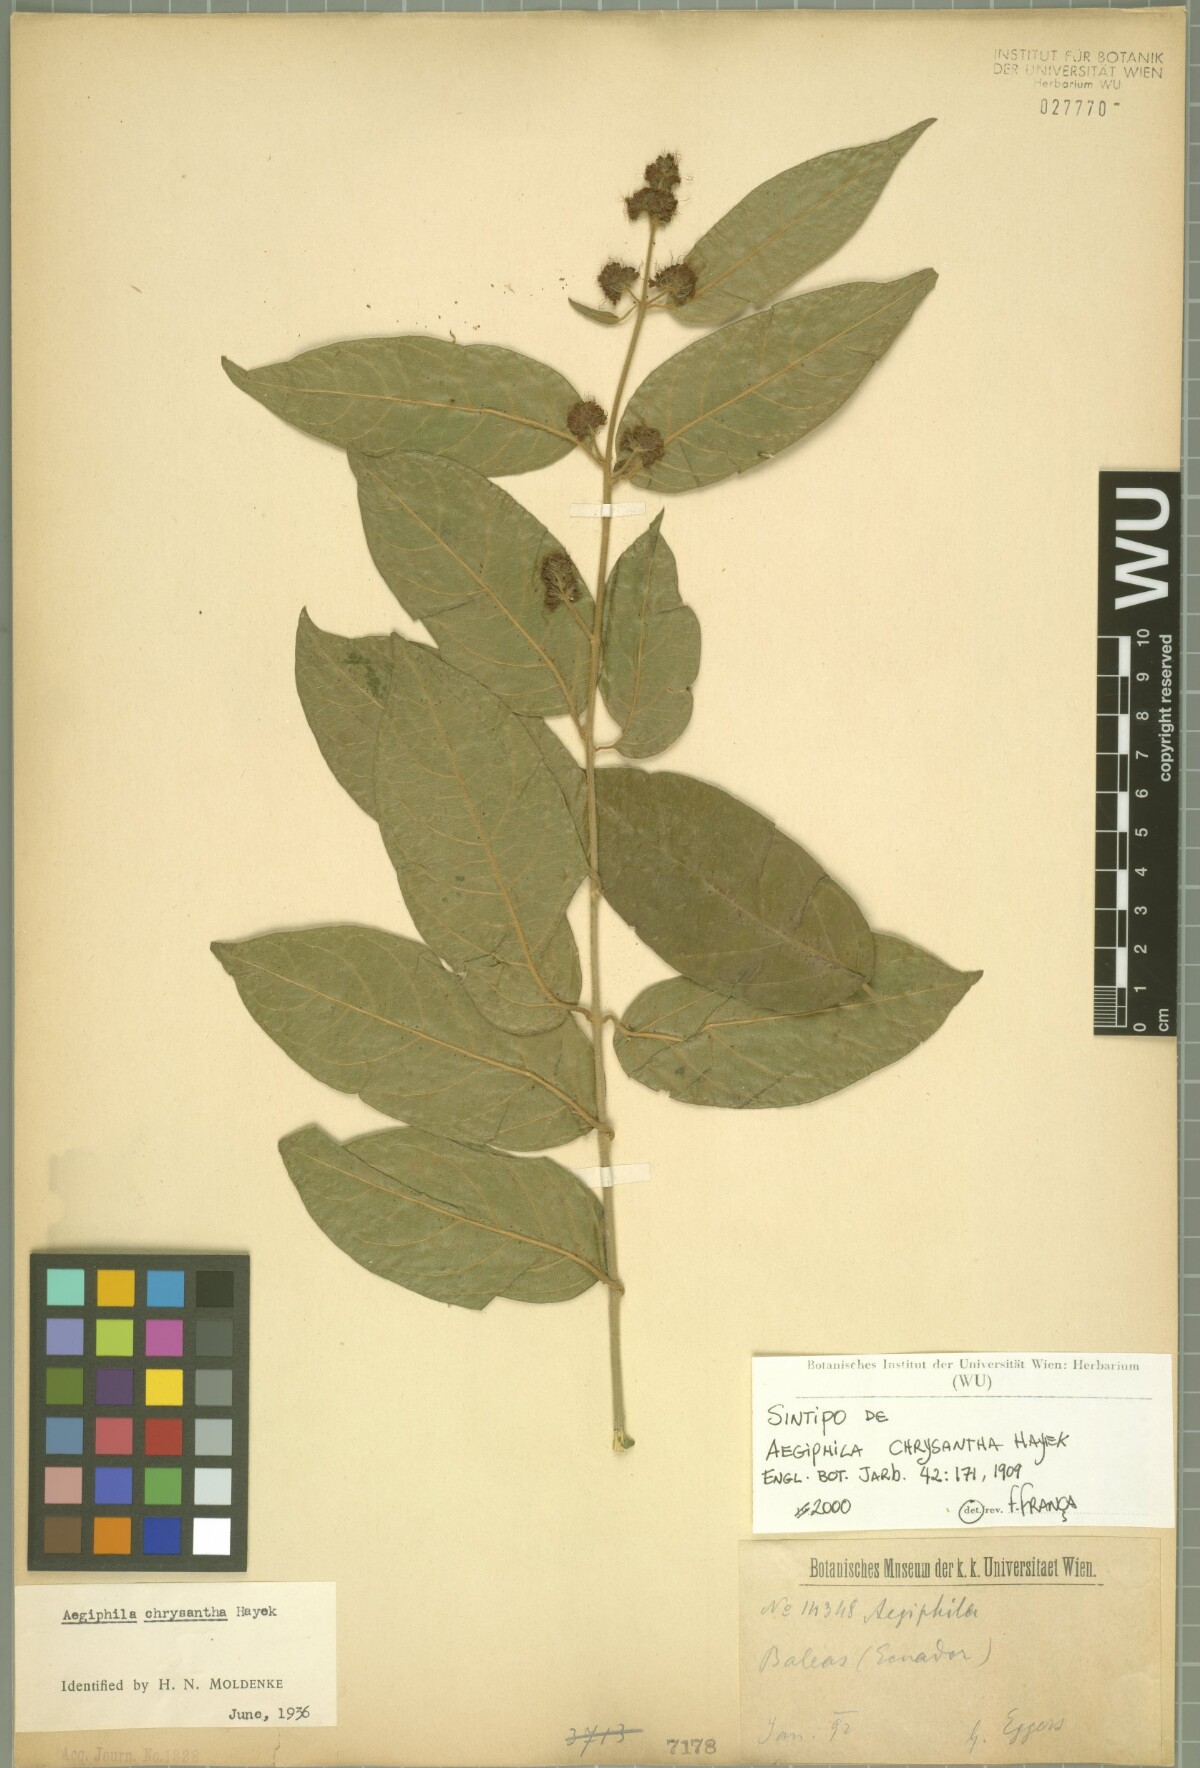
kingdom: Plantae
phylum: Tracheophyta
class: Magnoliopsida
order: Lamiales
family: Lamiaceae
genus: Aegiphila
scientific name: Aegiphila vitelliniflora
